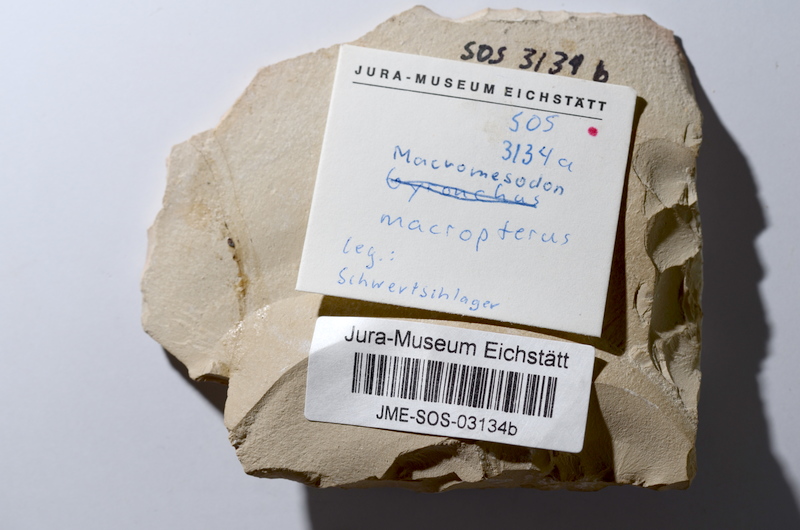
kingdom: Animalia
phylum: Chordata
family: Pycnodontidae
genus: Turbomesodon
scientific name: Turbomesodon relegans
